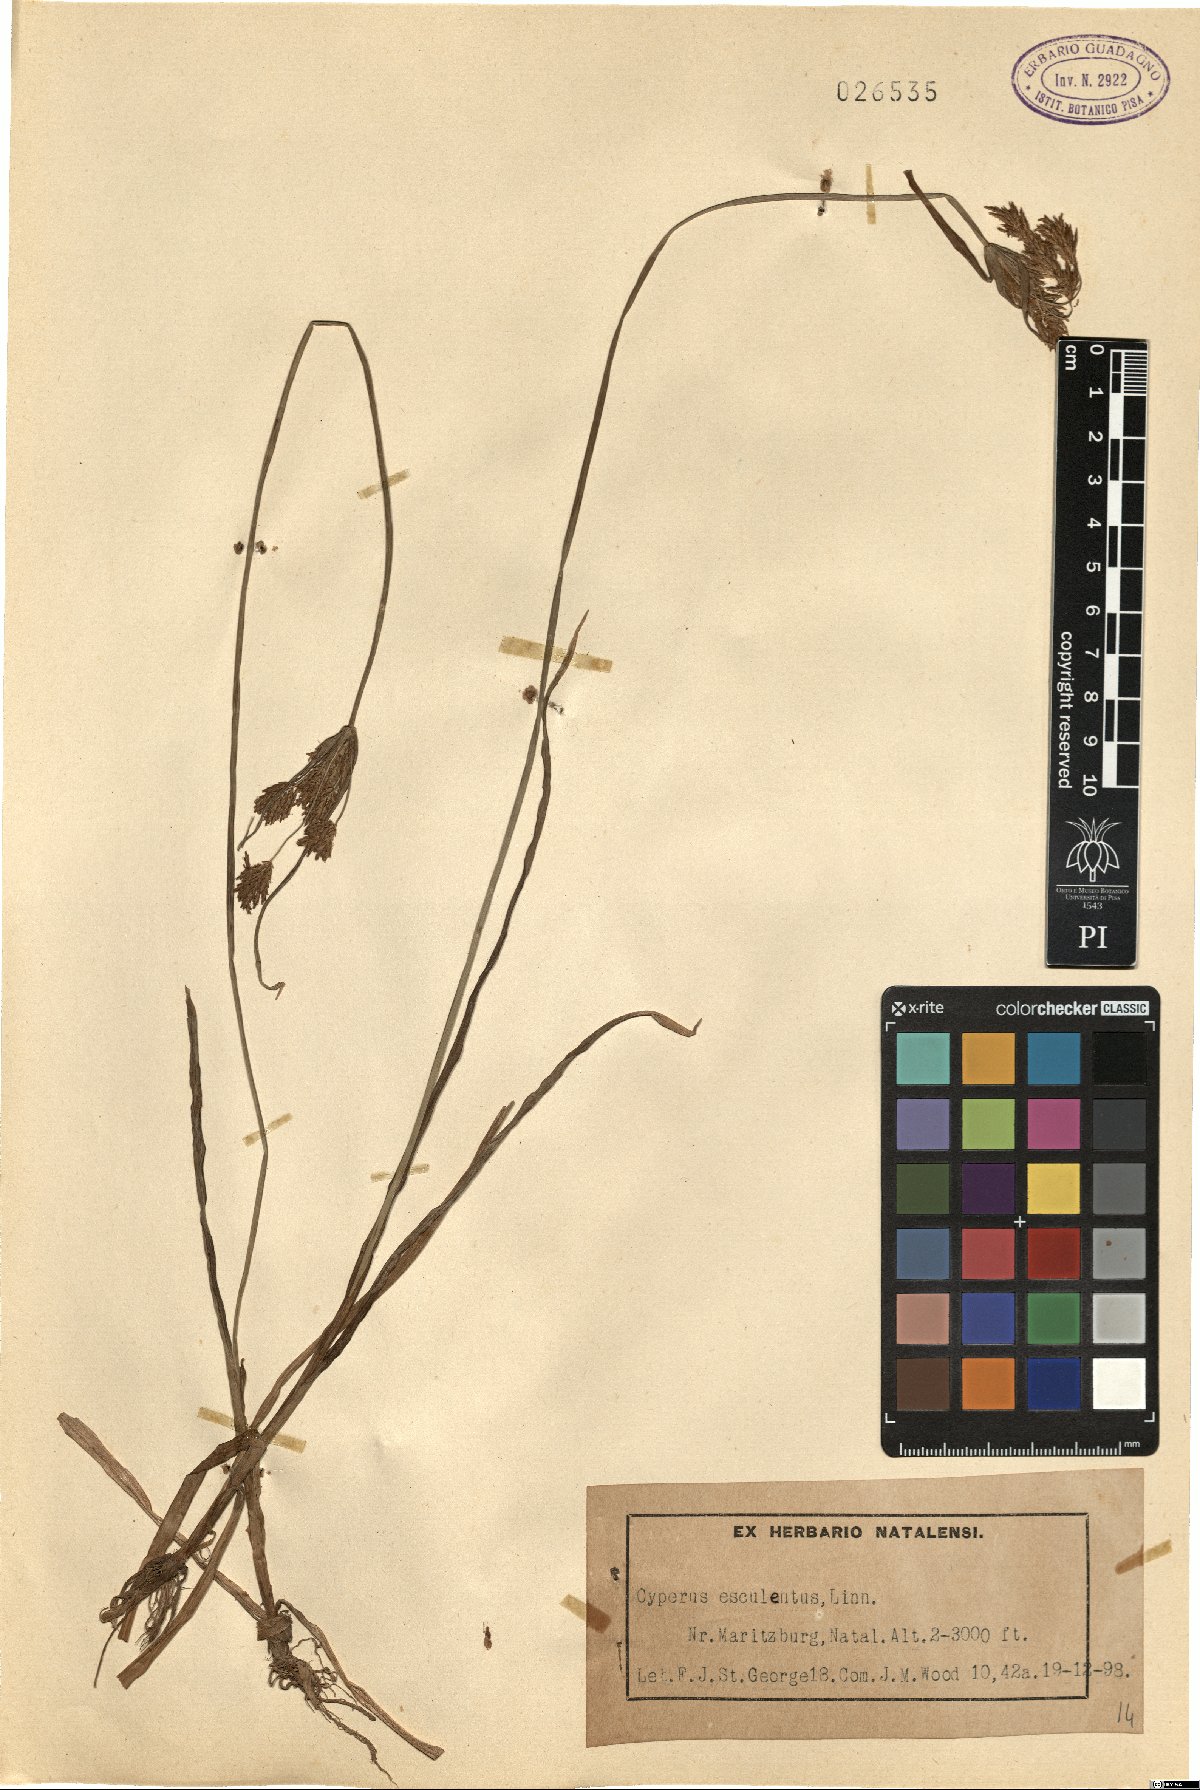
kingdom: Plantae
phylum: Tracheophyta
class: Liliopsida
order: Poales
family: Cyperaceae
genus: Cyperus
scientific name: Cyperus esculentus
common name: Yellow nutsedge
